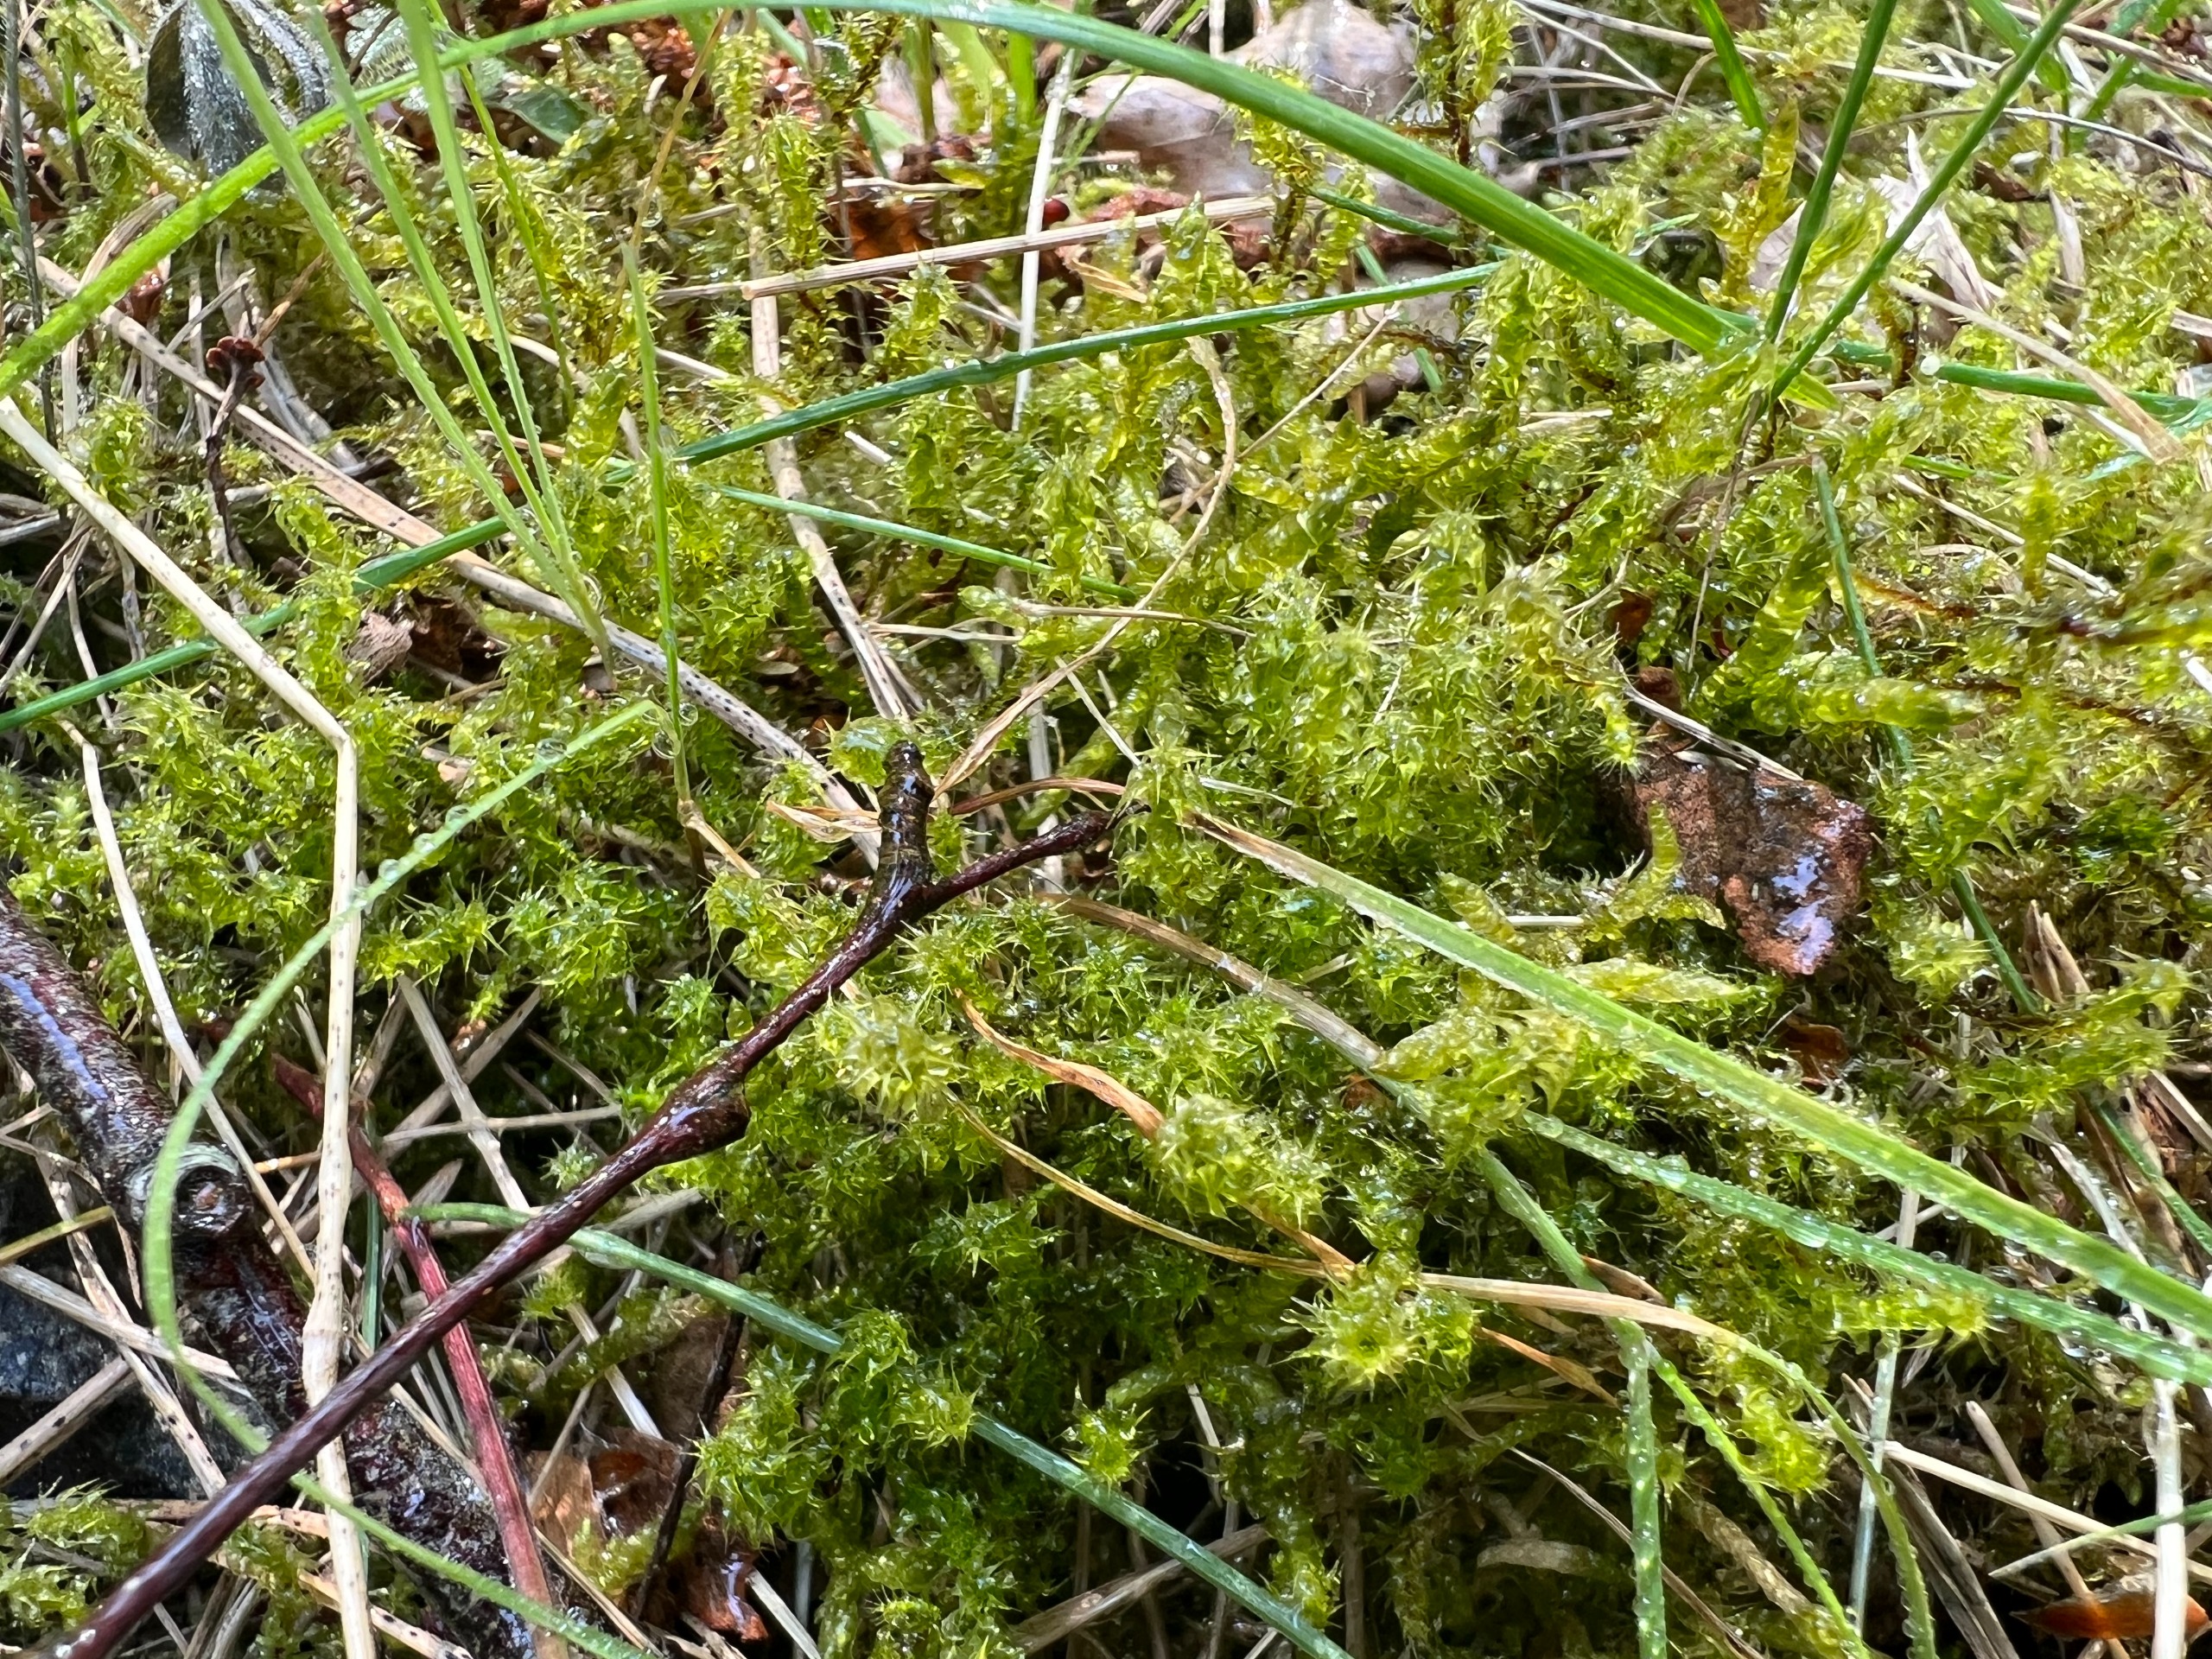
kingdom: Plantae
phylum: Bryophyta
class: Bryopsida
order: Hypnales
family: Hylocomiaceae
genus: Rhytidiadelphus
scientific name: Rhytidiadelphus squarrosus
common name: Plæne-kransemos
